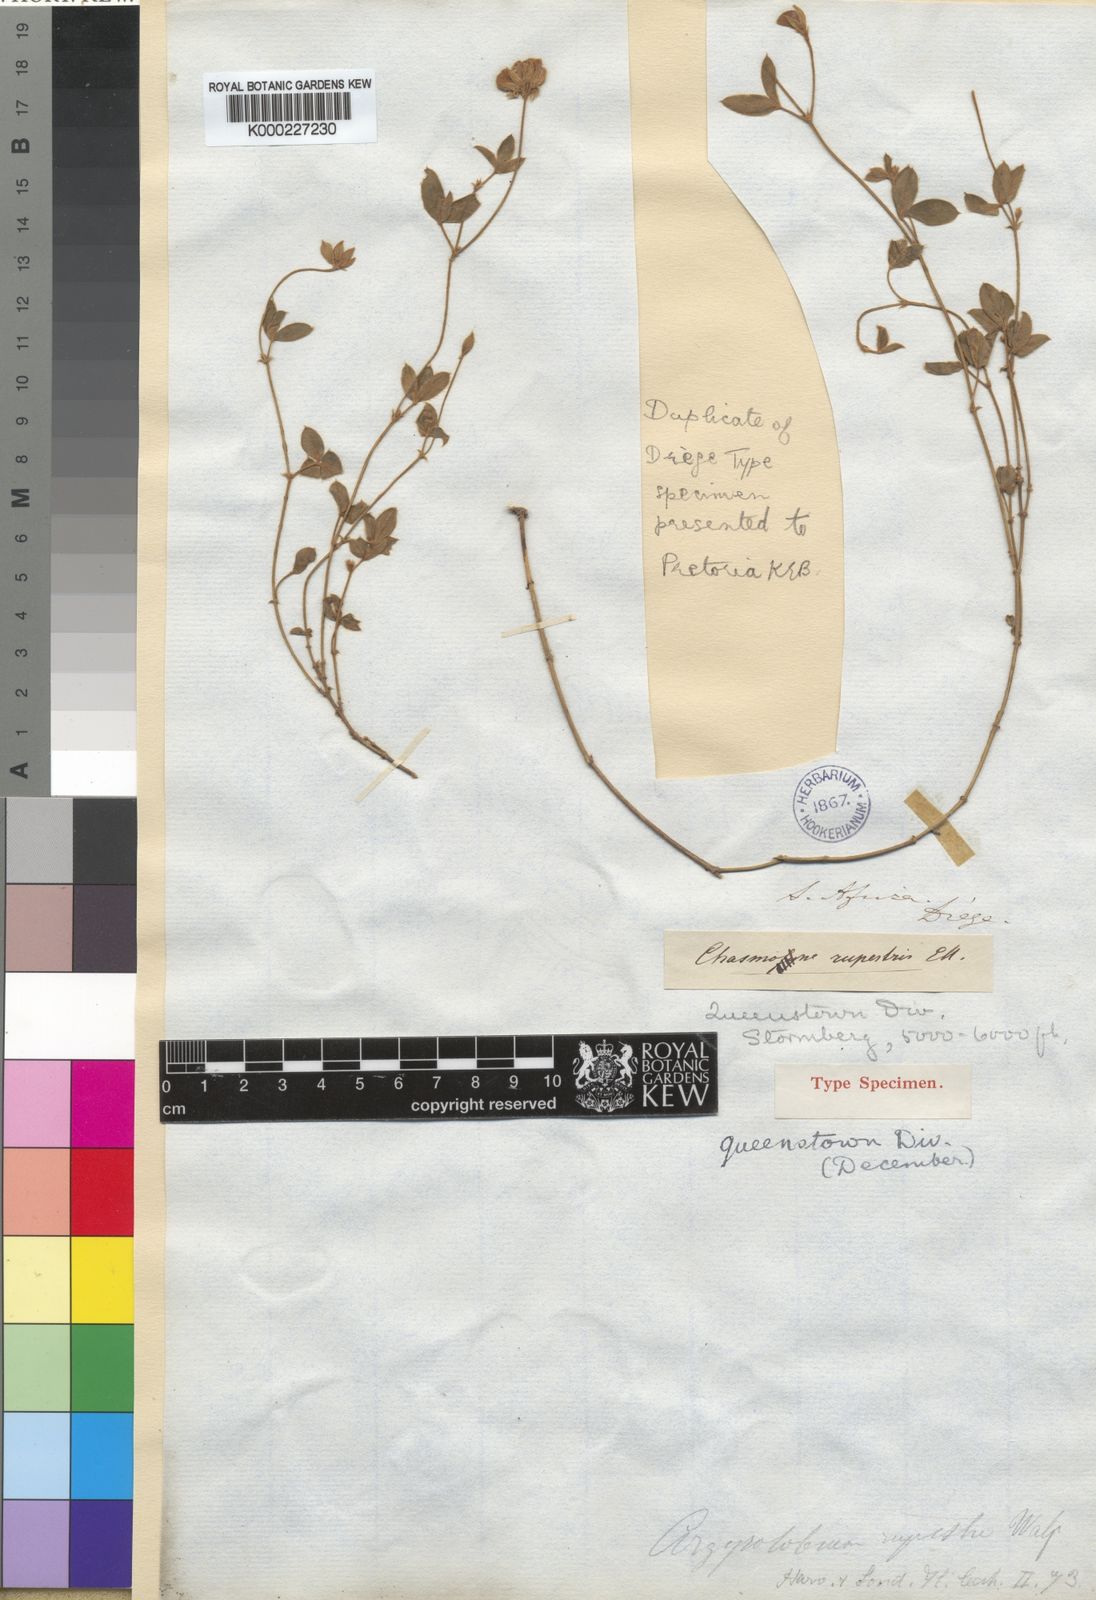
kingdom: Plantae
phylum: Tracheophyta
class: Magnoliopsida
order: Fabales
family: Fabaceae
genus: Argyrolobium
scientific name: Argyrolobium rupestre
